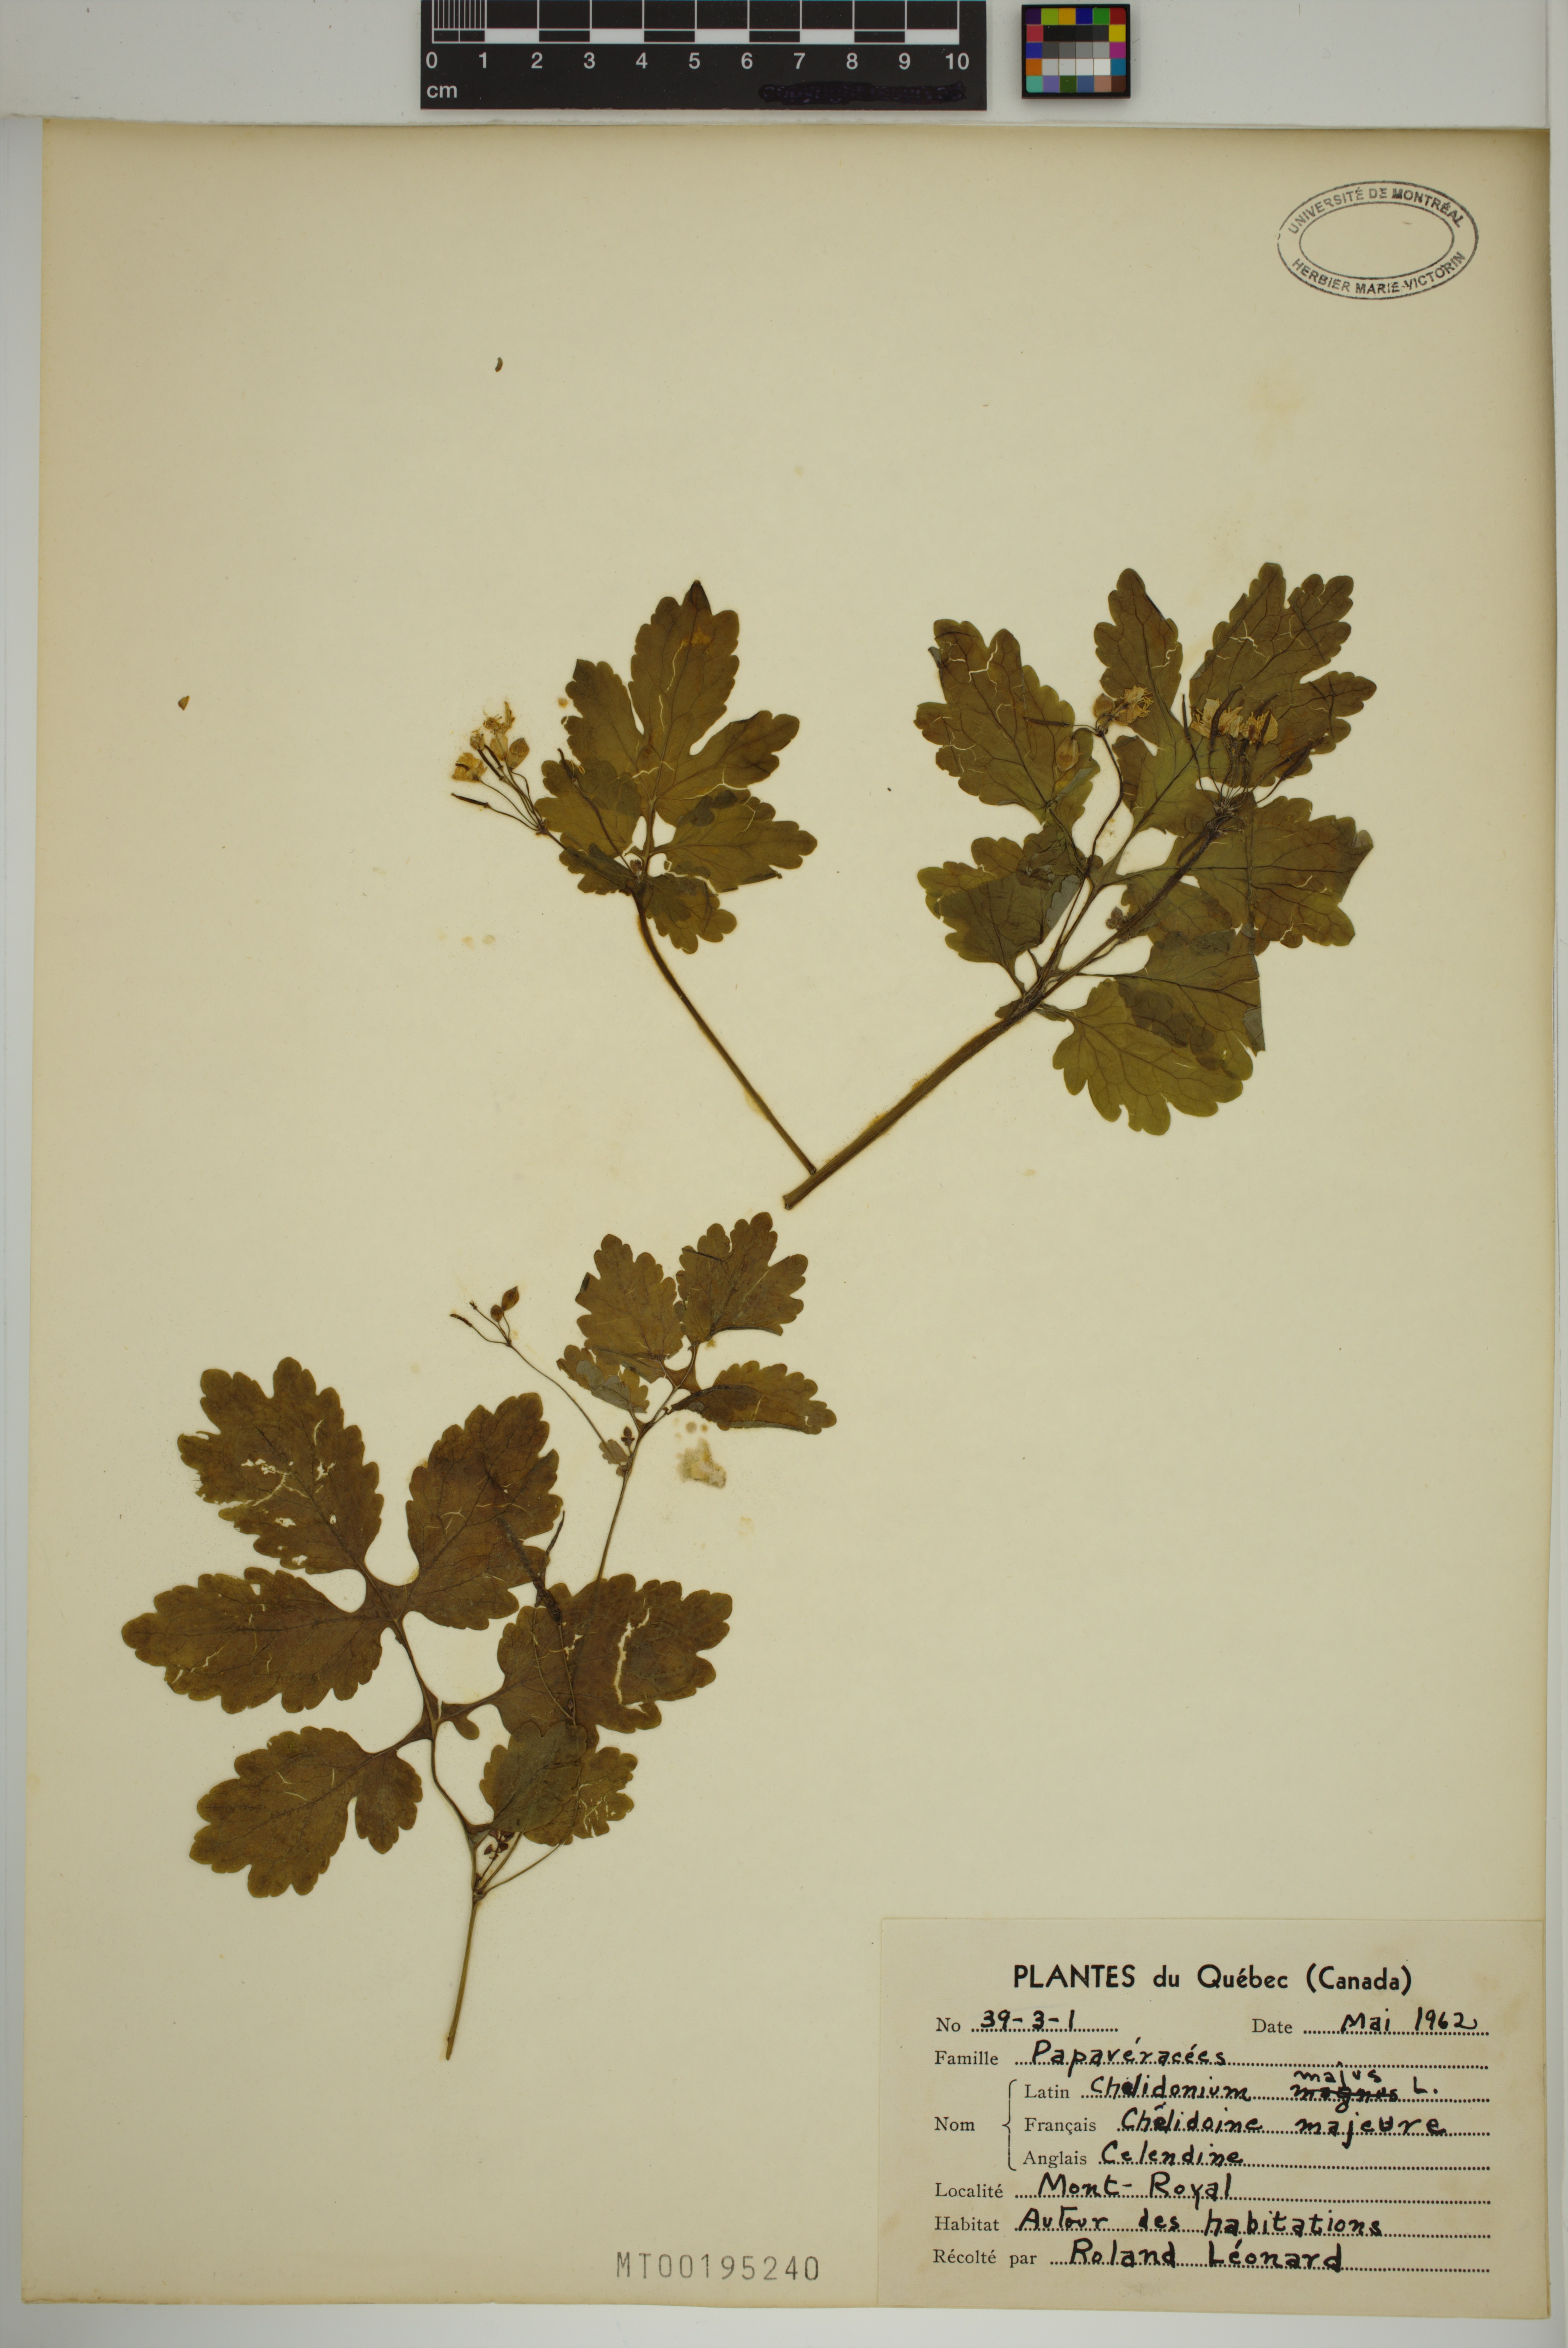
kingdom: Plantae
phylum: Tracheophyta
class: Magnoliopsida
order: Ranunculales
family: Papaveraceae
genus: Chelidonium
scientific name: Chelidonium majus
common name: Greater celandine
